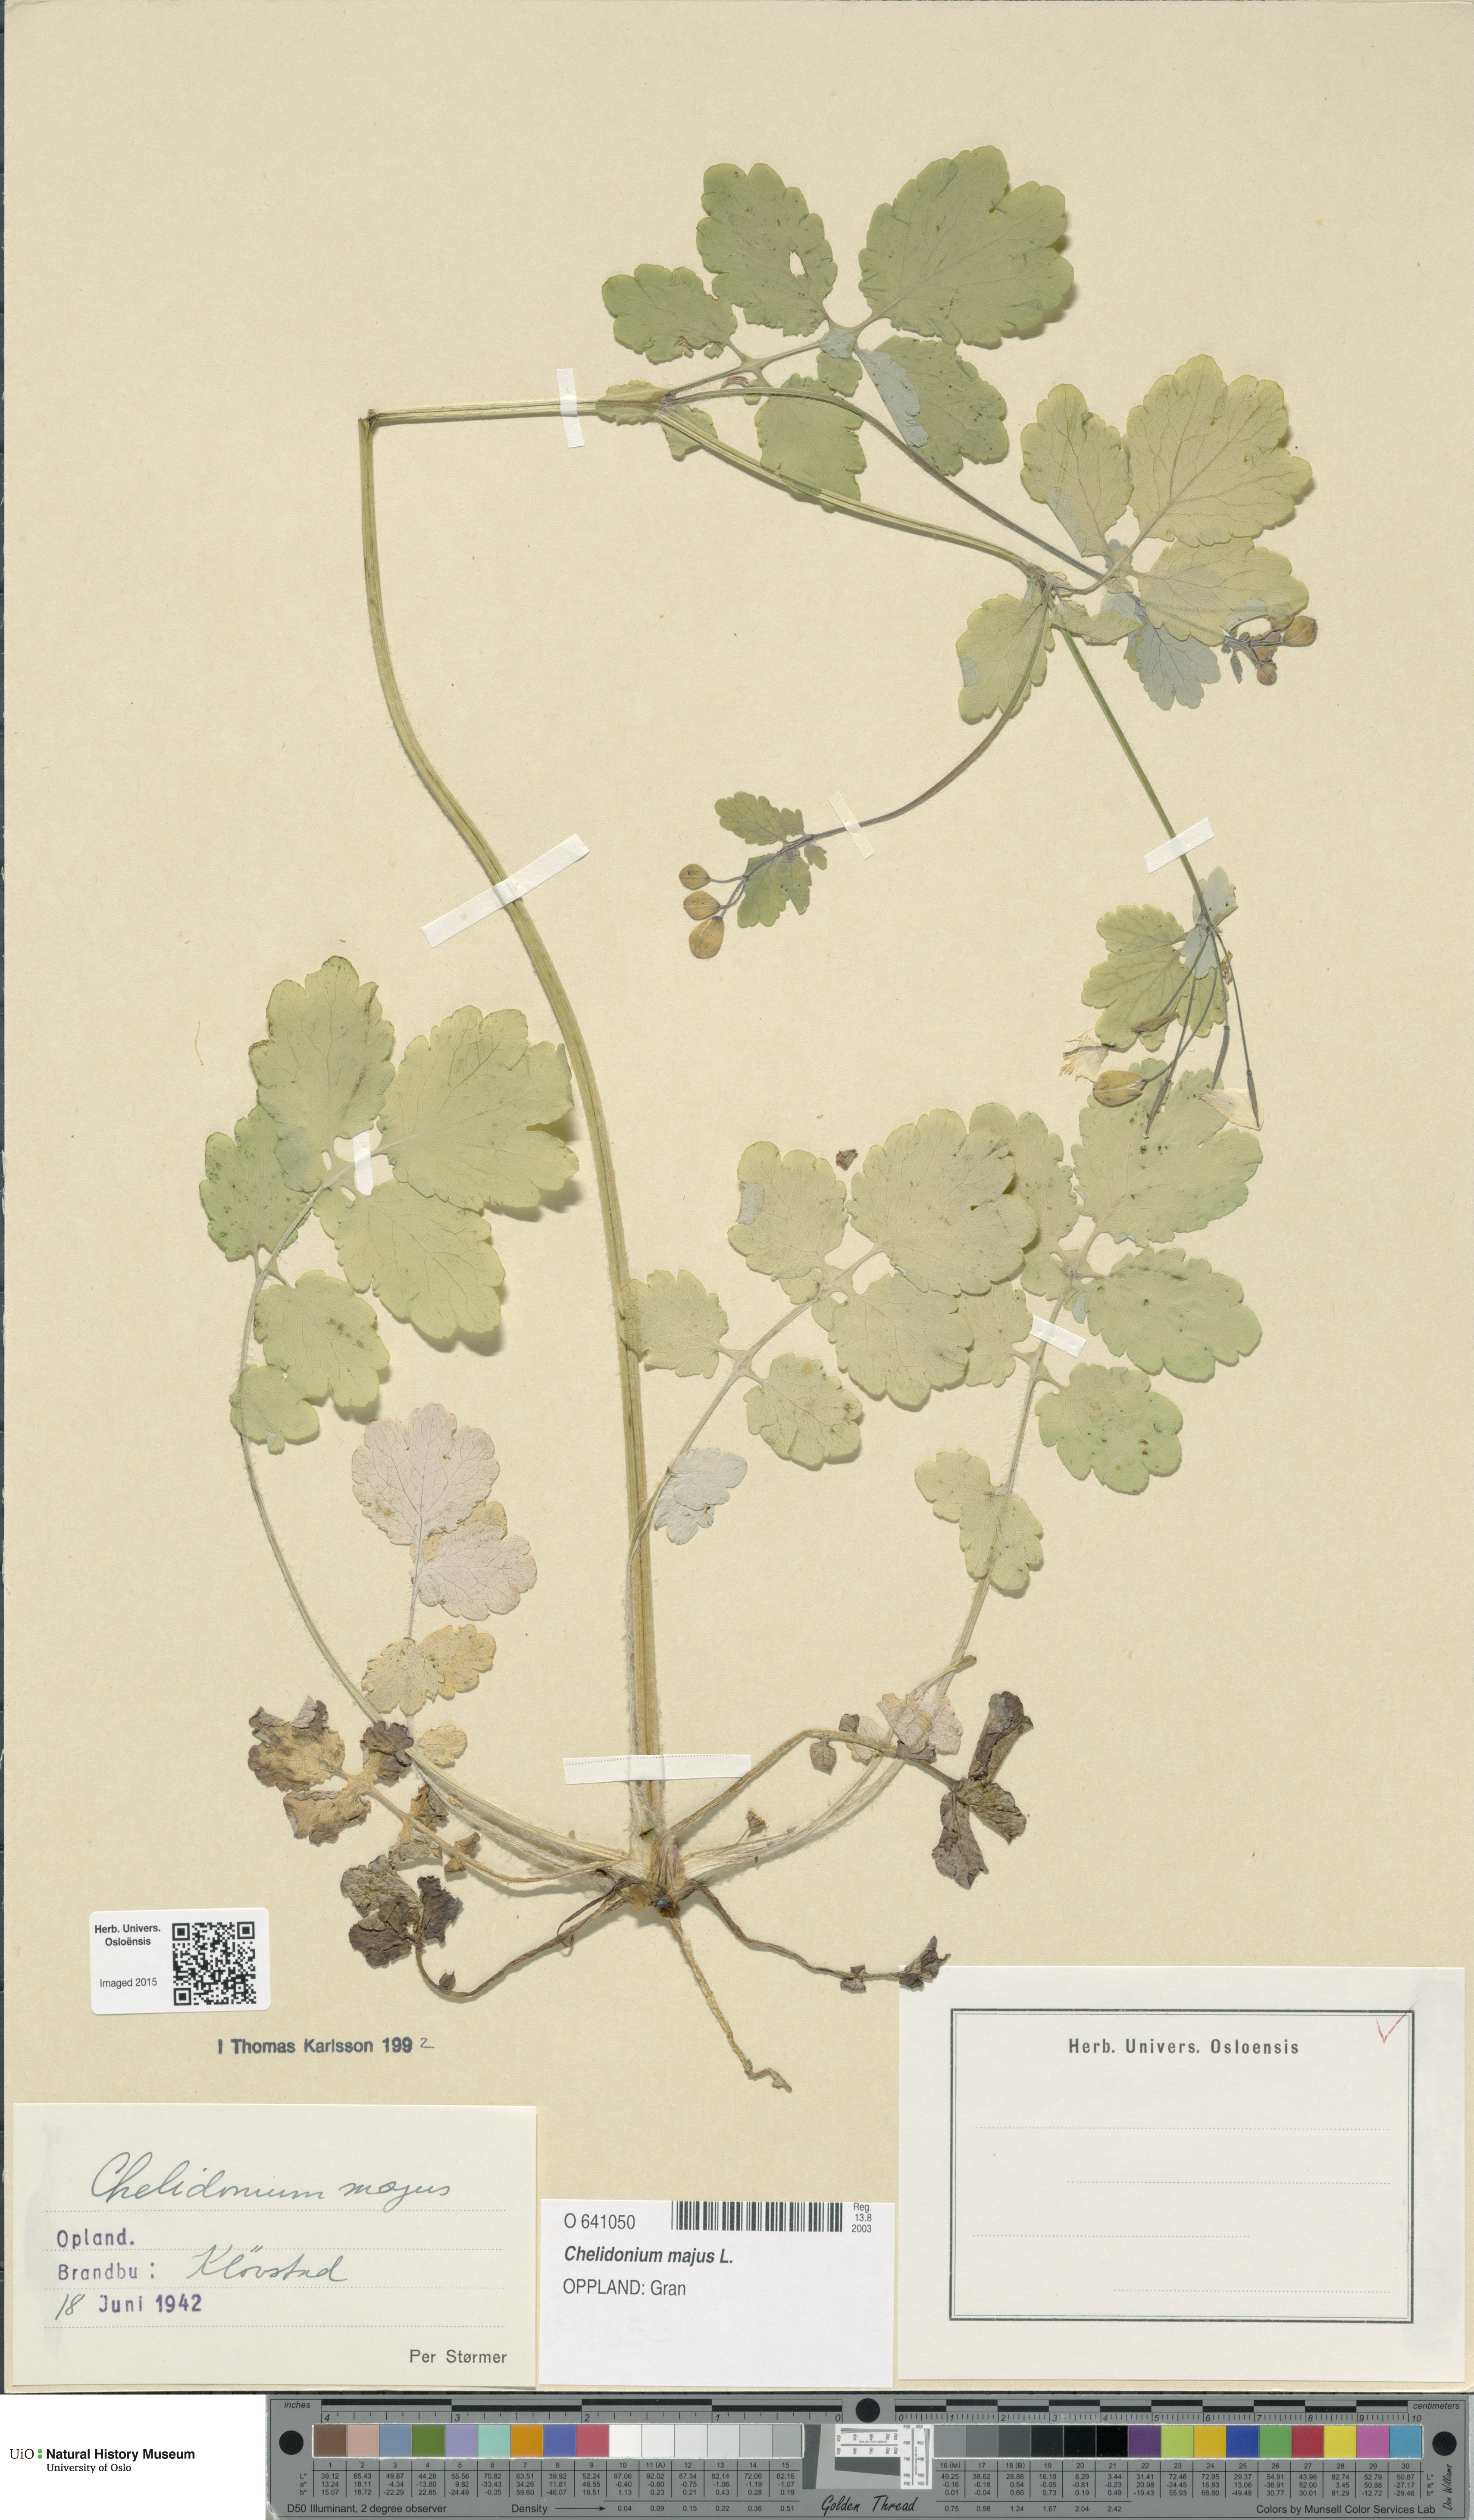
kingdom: Plantae
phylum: Tracheophyta
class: Magnoliopsida
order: Ranunculales
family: Papaveraceae
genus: Chelidonium
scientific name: Chelidonium majus
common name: Greater celandine
